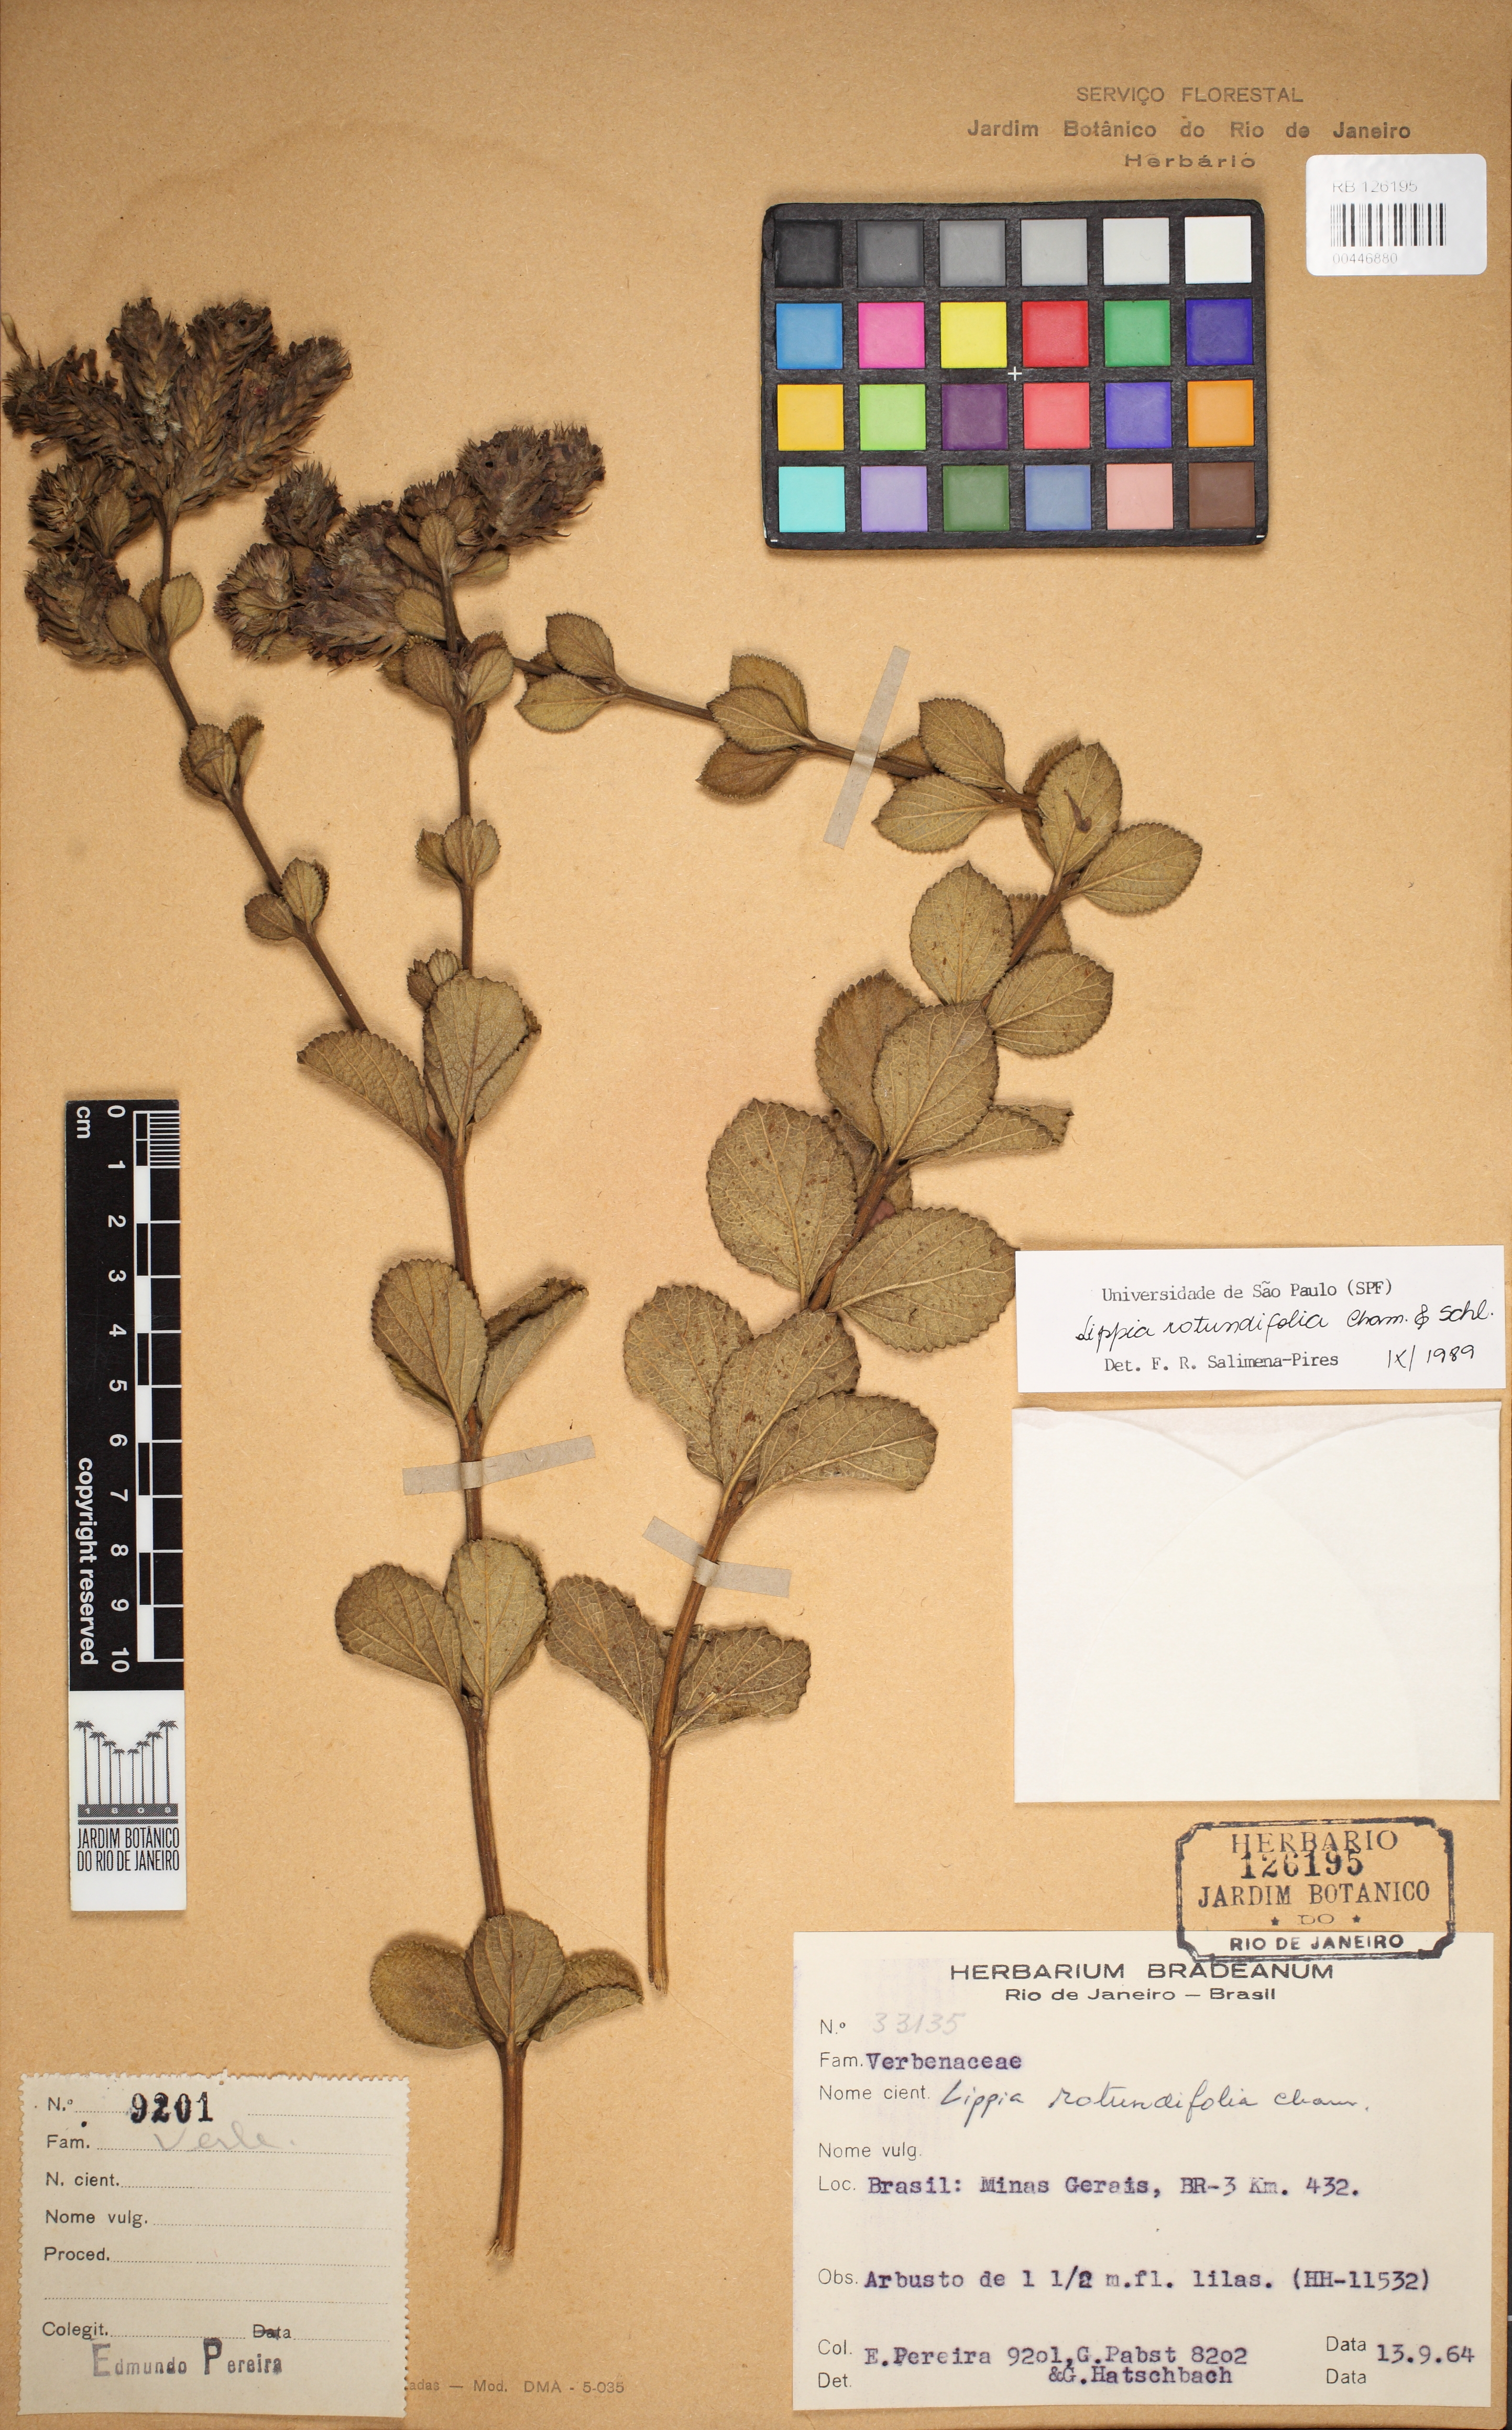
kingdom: Plantae
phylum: Tracheophyta
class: Magnoliopsida
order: Lamiales
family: Verbenaceae
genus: Lippia
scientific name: Lippia rotundifolia
